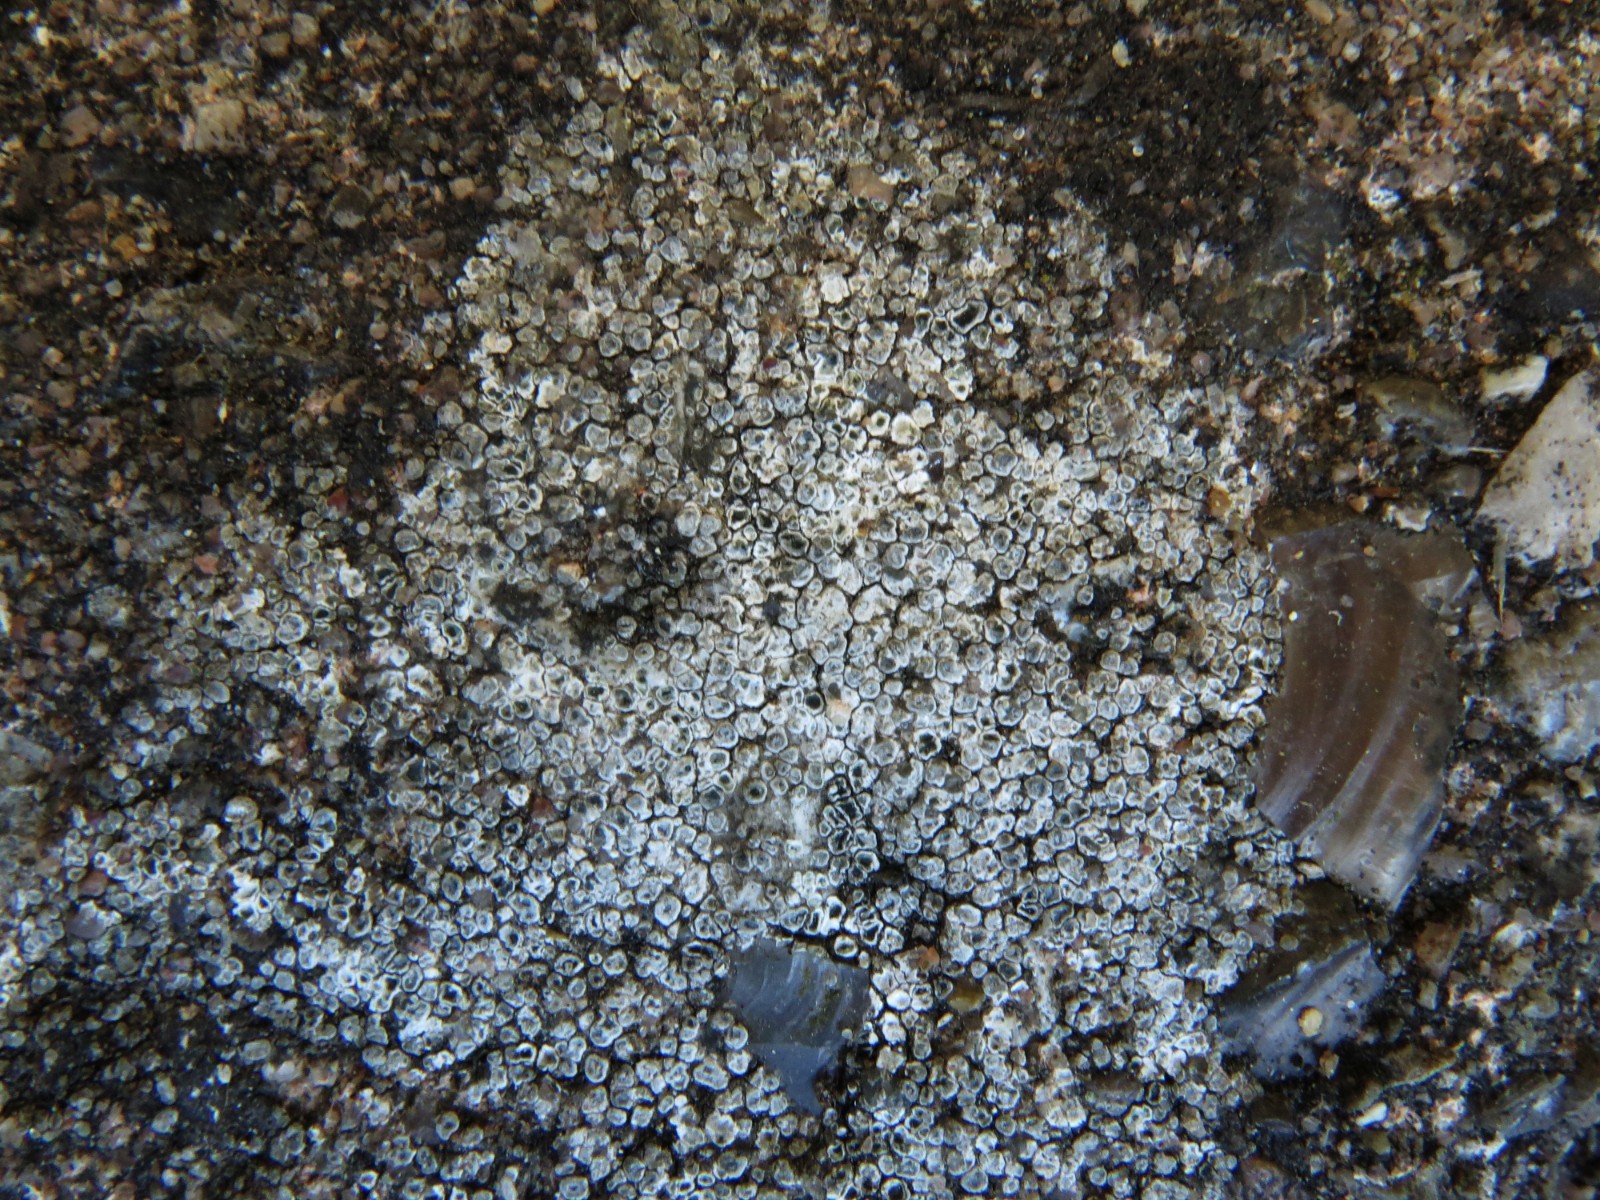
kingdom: Fungi
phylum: Ascomycota
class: Lecanoromycetes
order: Pertusariales
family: Megasporaceae
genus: Circinaria
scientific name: Circinaria contorta
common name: indviklet hulskivelav
